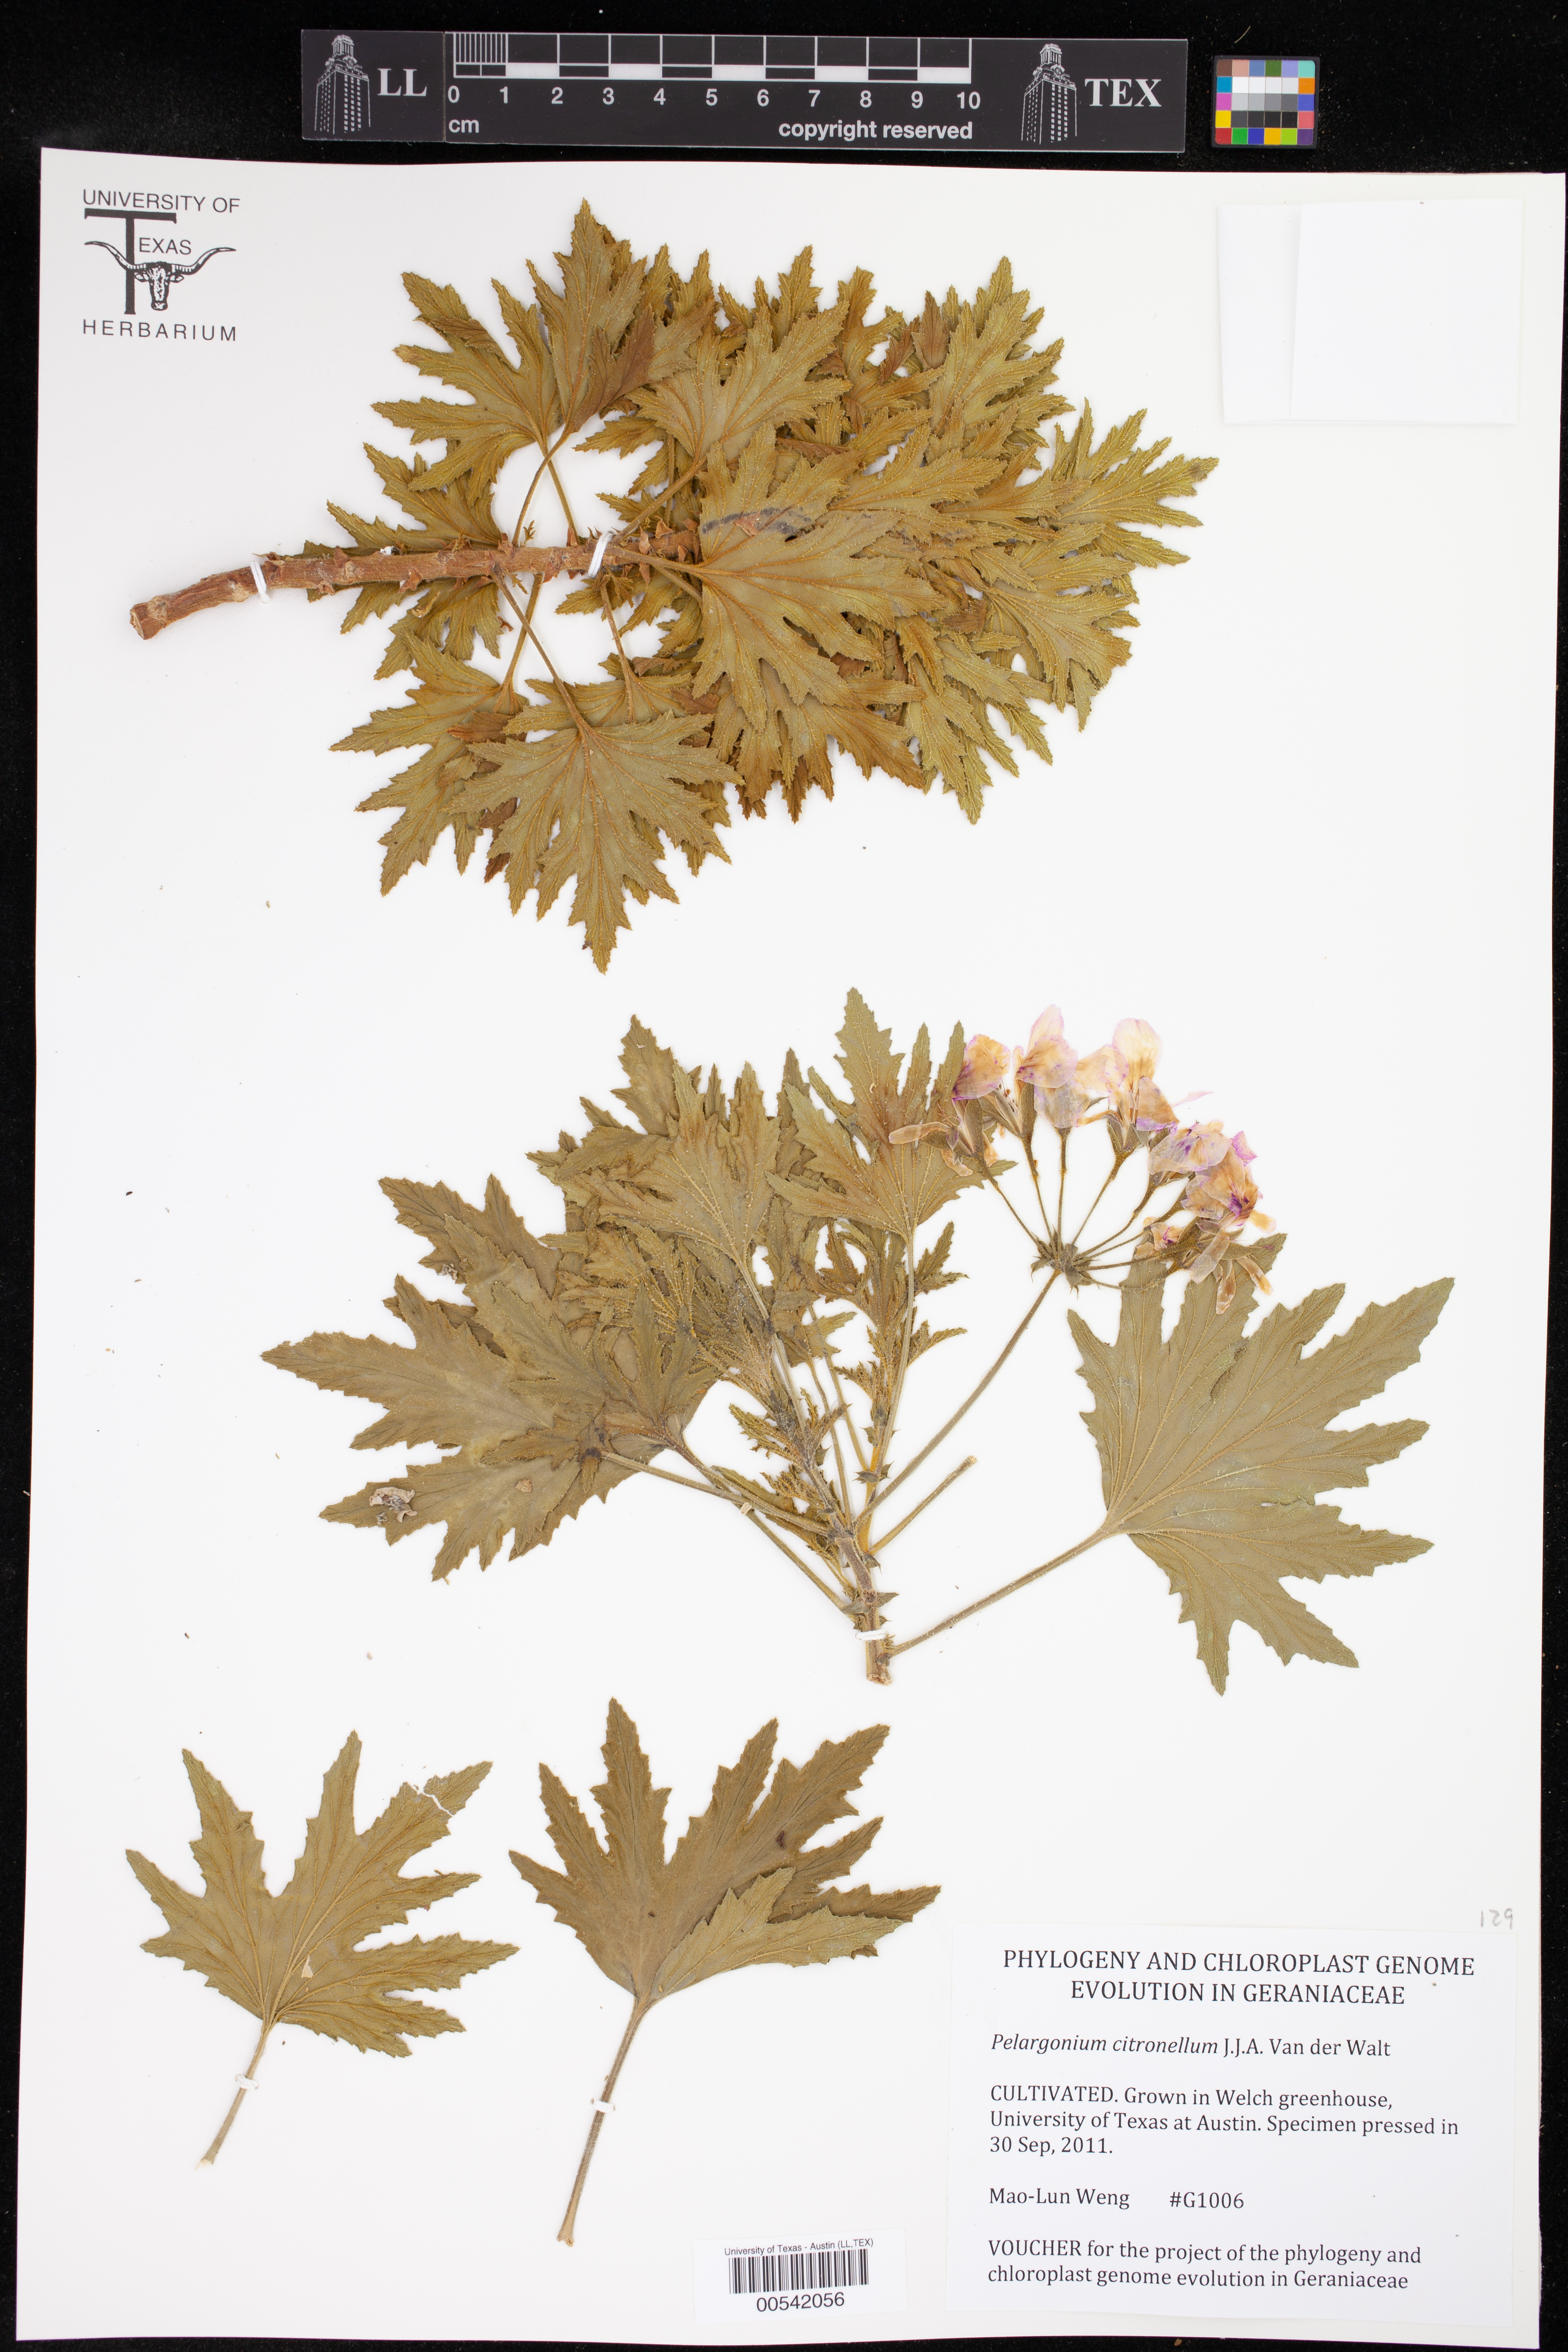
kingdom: Plantae
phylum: Tracheophyta
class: Magnoliopsida
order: Geraniales
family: Geraniaceae
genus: Pelargonium
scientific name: Pelargonium citronellum
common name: Lemon-scent pelargonium
